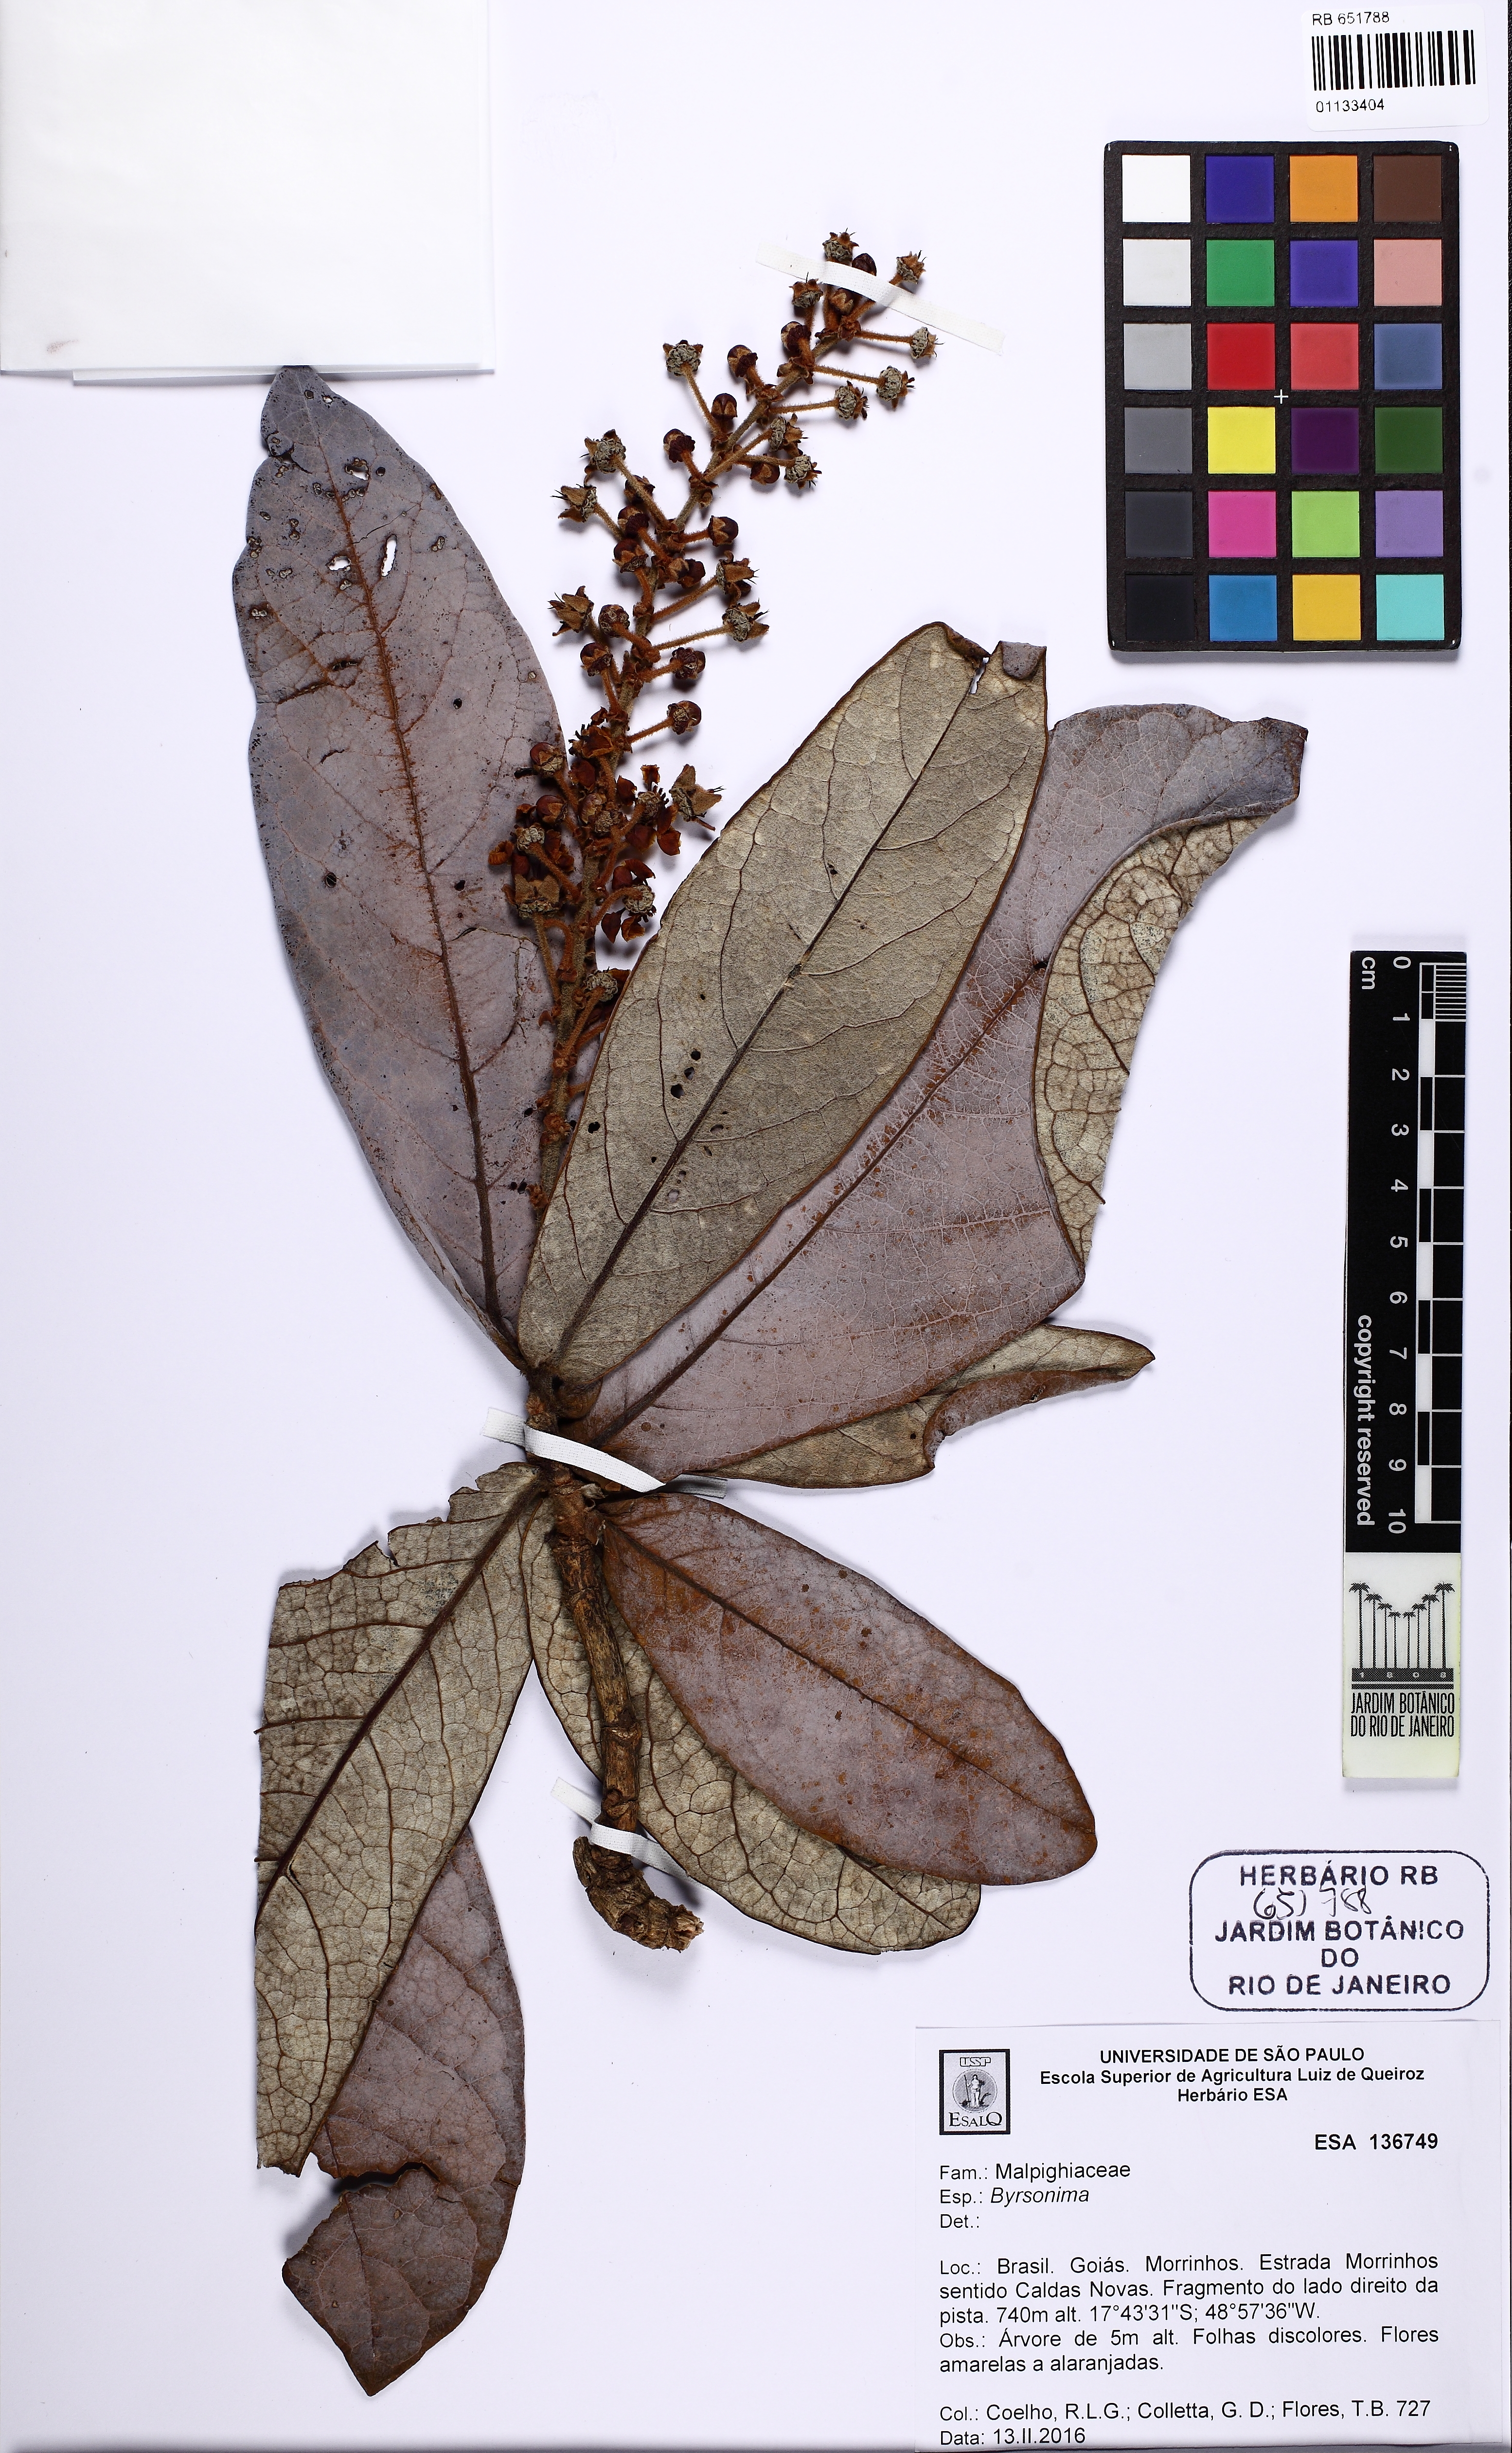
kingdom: Plantae
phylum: Tracheophyta
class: Magnoliopsida
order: Malpighiales
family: Malpighiaceae
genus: Byrsonima
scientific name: Byrsonima
